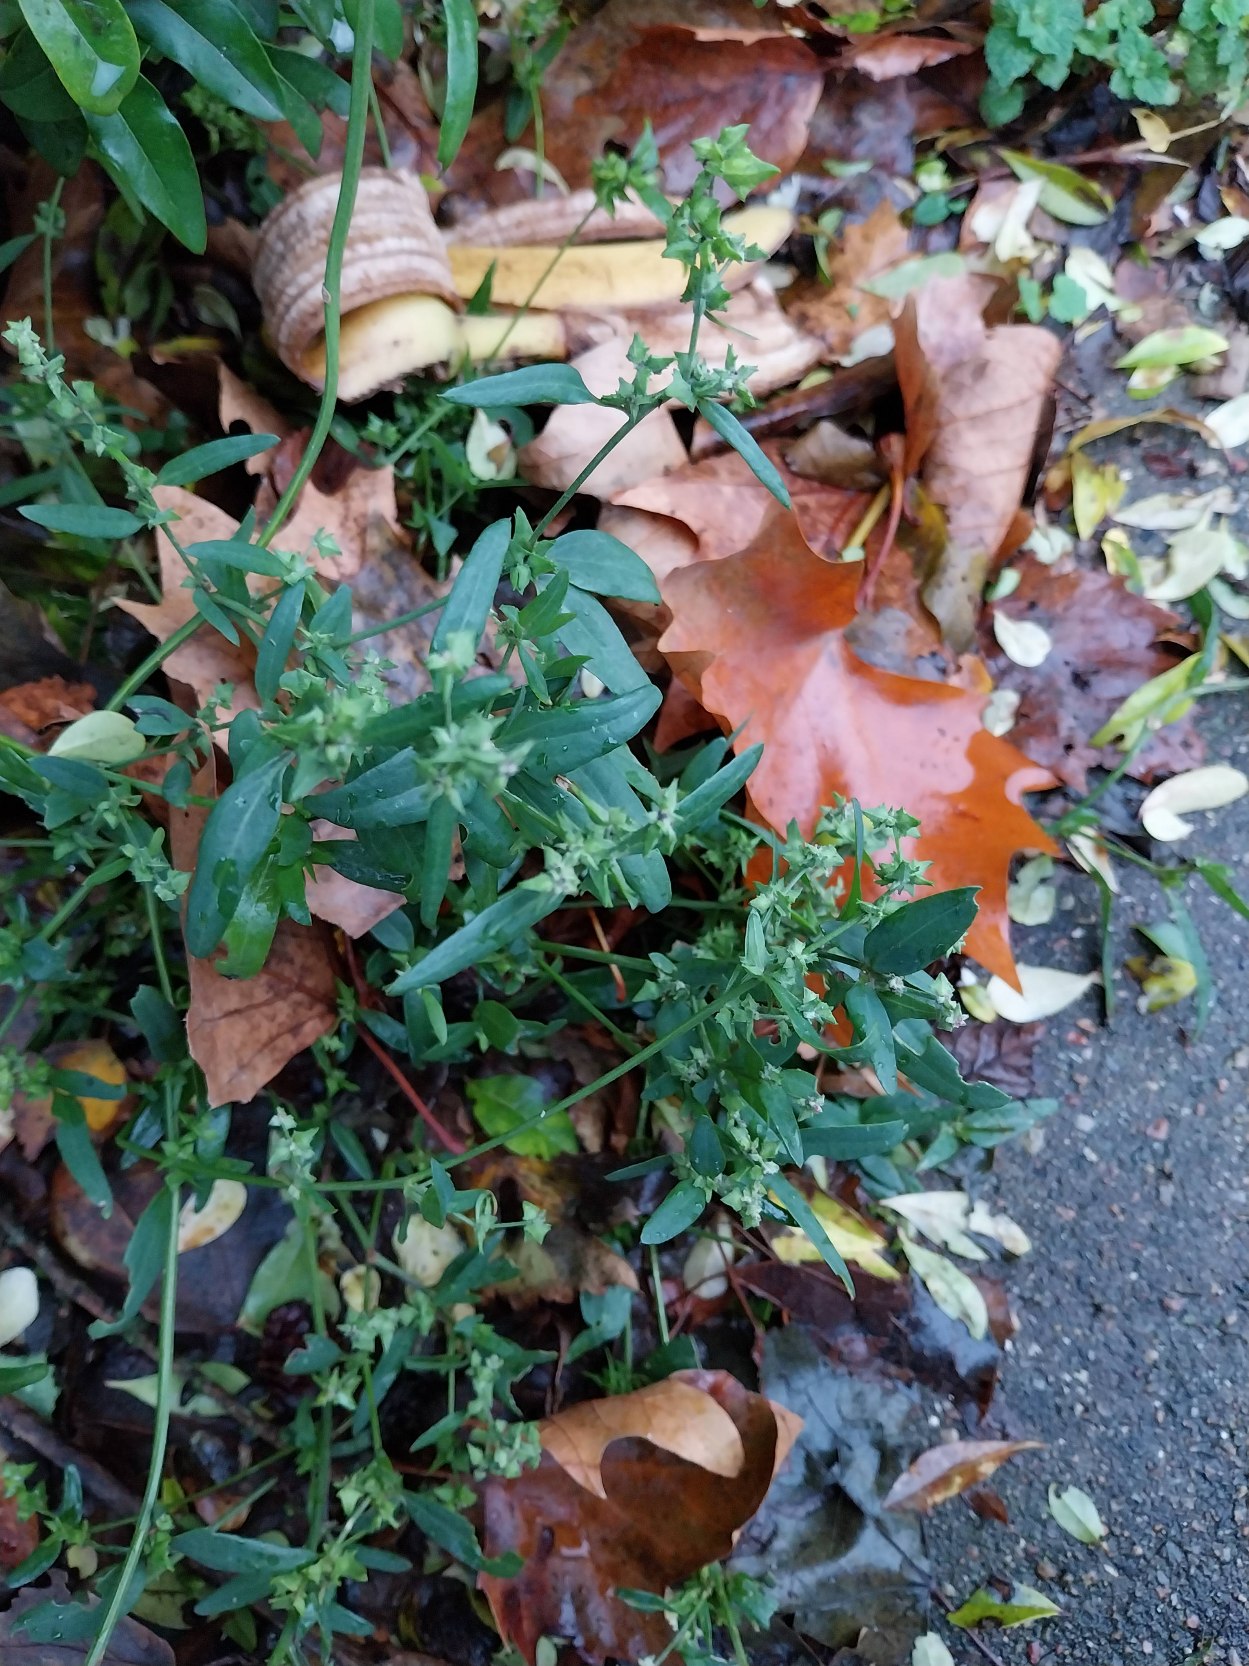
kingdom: Plantae
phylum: Tracheophyta
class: Magnoliopsida
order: Caryophyllales
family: Amaranthaceae
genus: Atriplex
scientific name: Atriplex patula
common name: Svine-mælde
